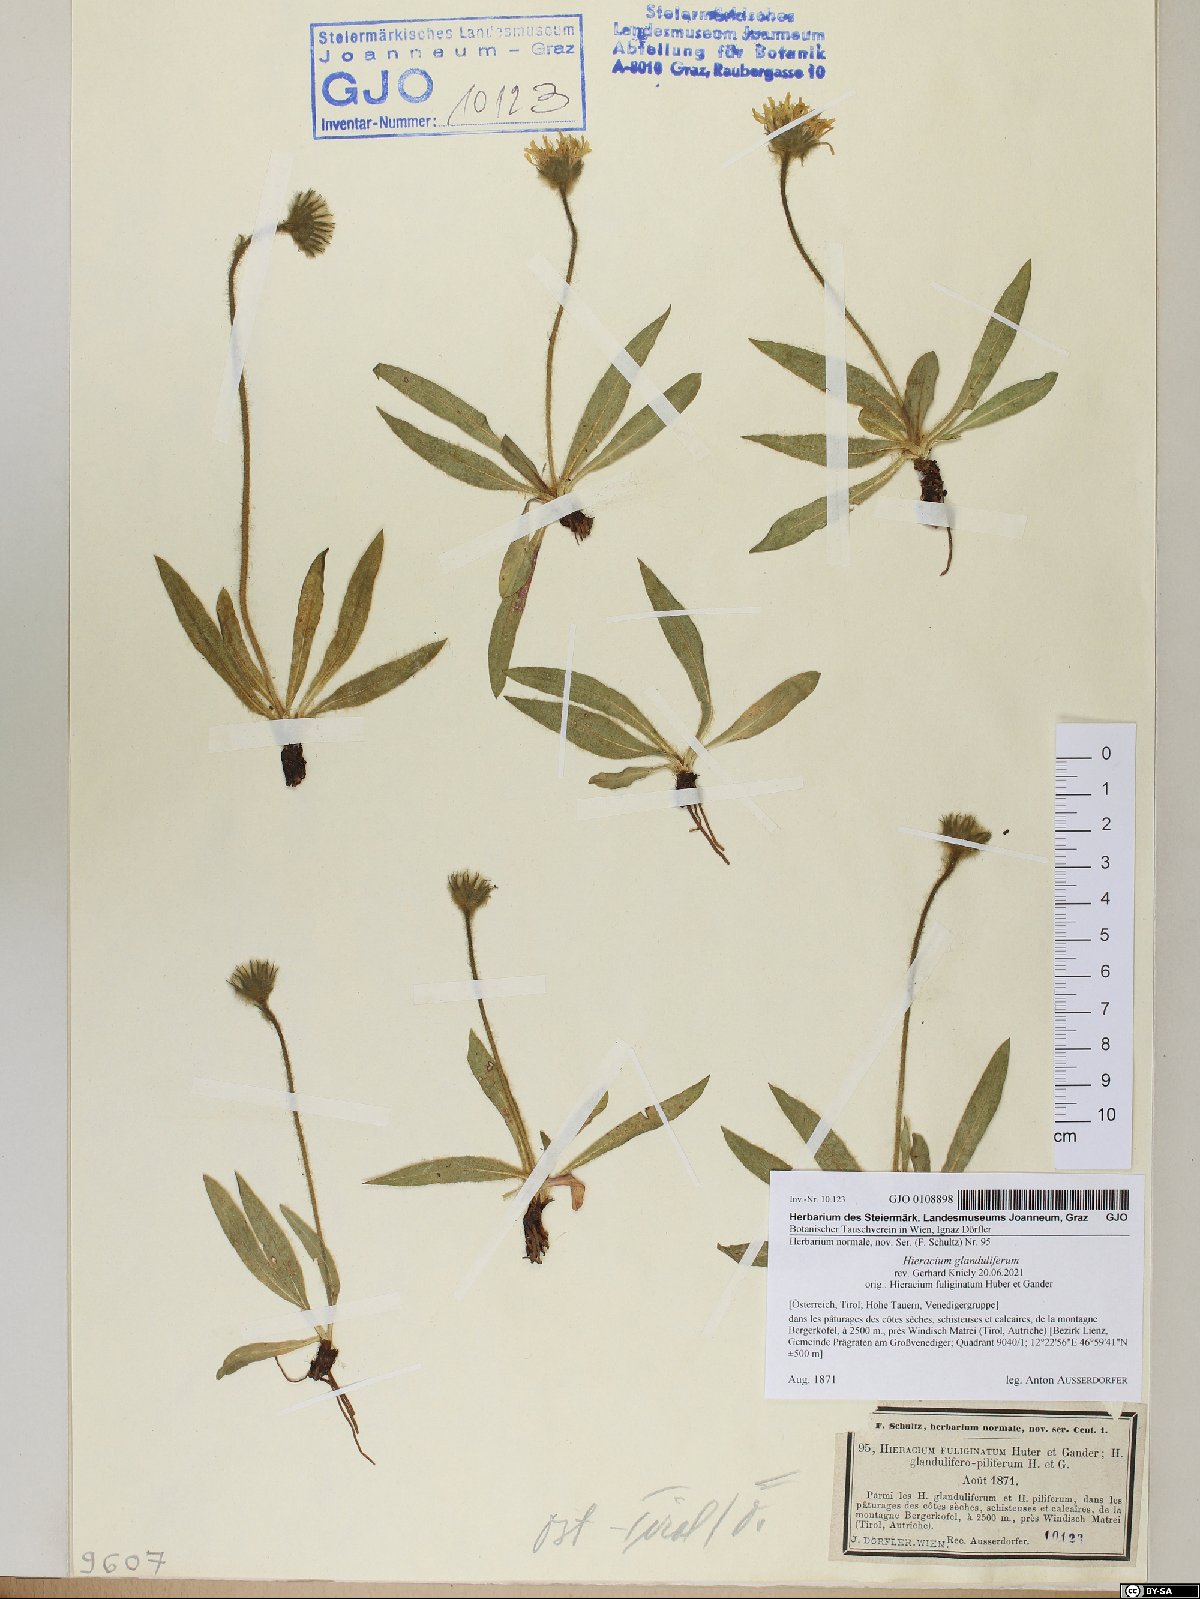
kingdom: Plantae
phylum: Tracheophyta
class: Magnoliopsida
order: Asterales
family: Asteraceae
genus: Hieracium
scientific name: Hieracium piliferum
